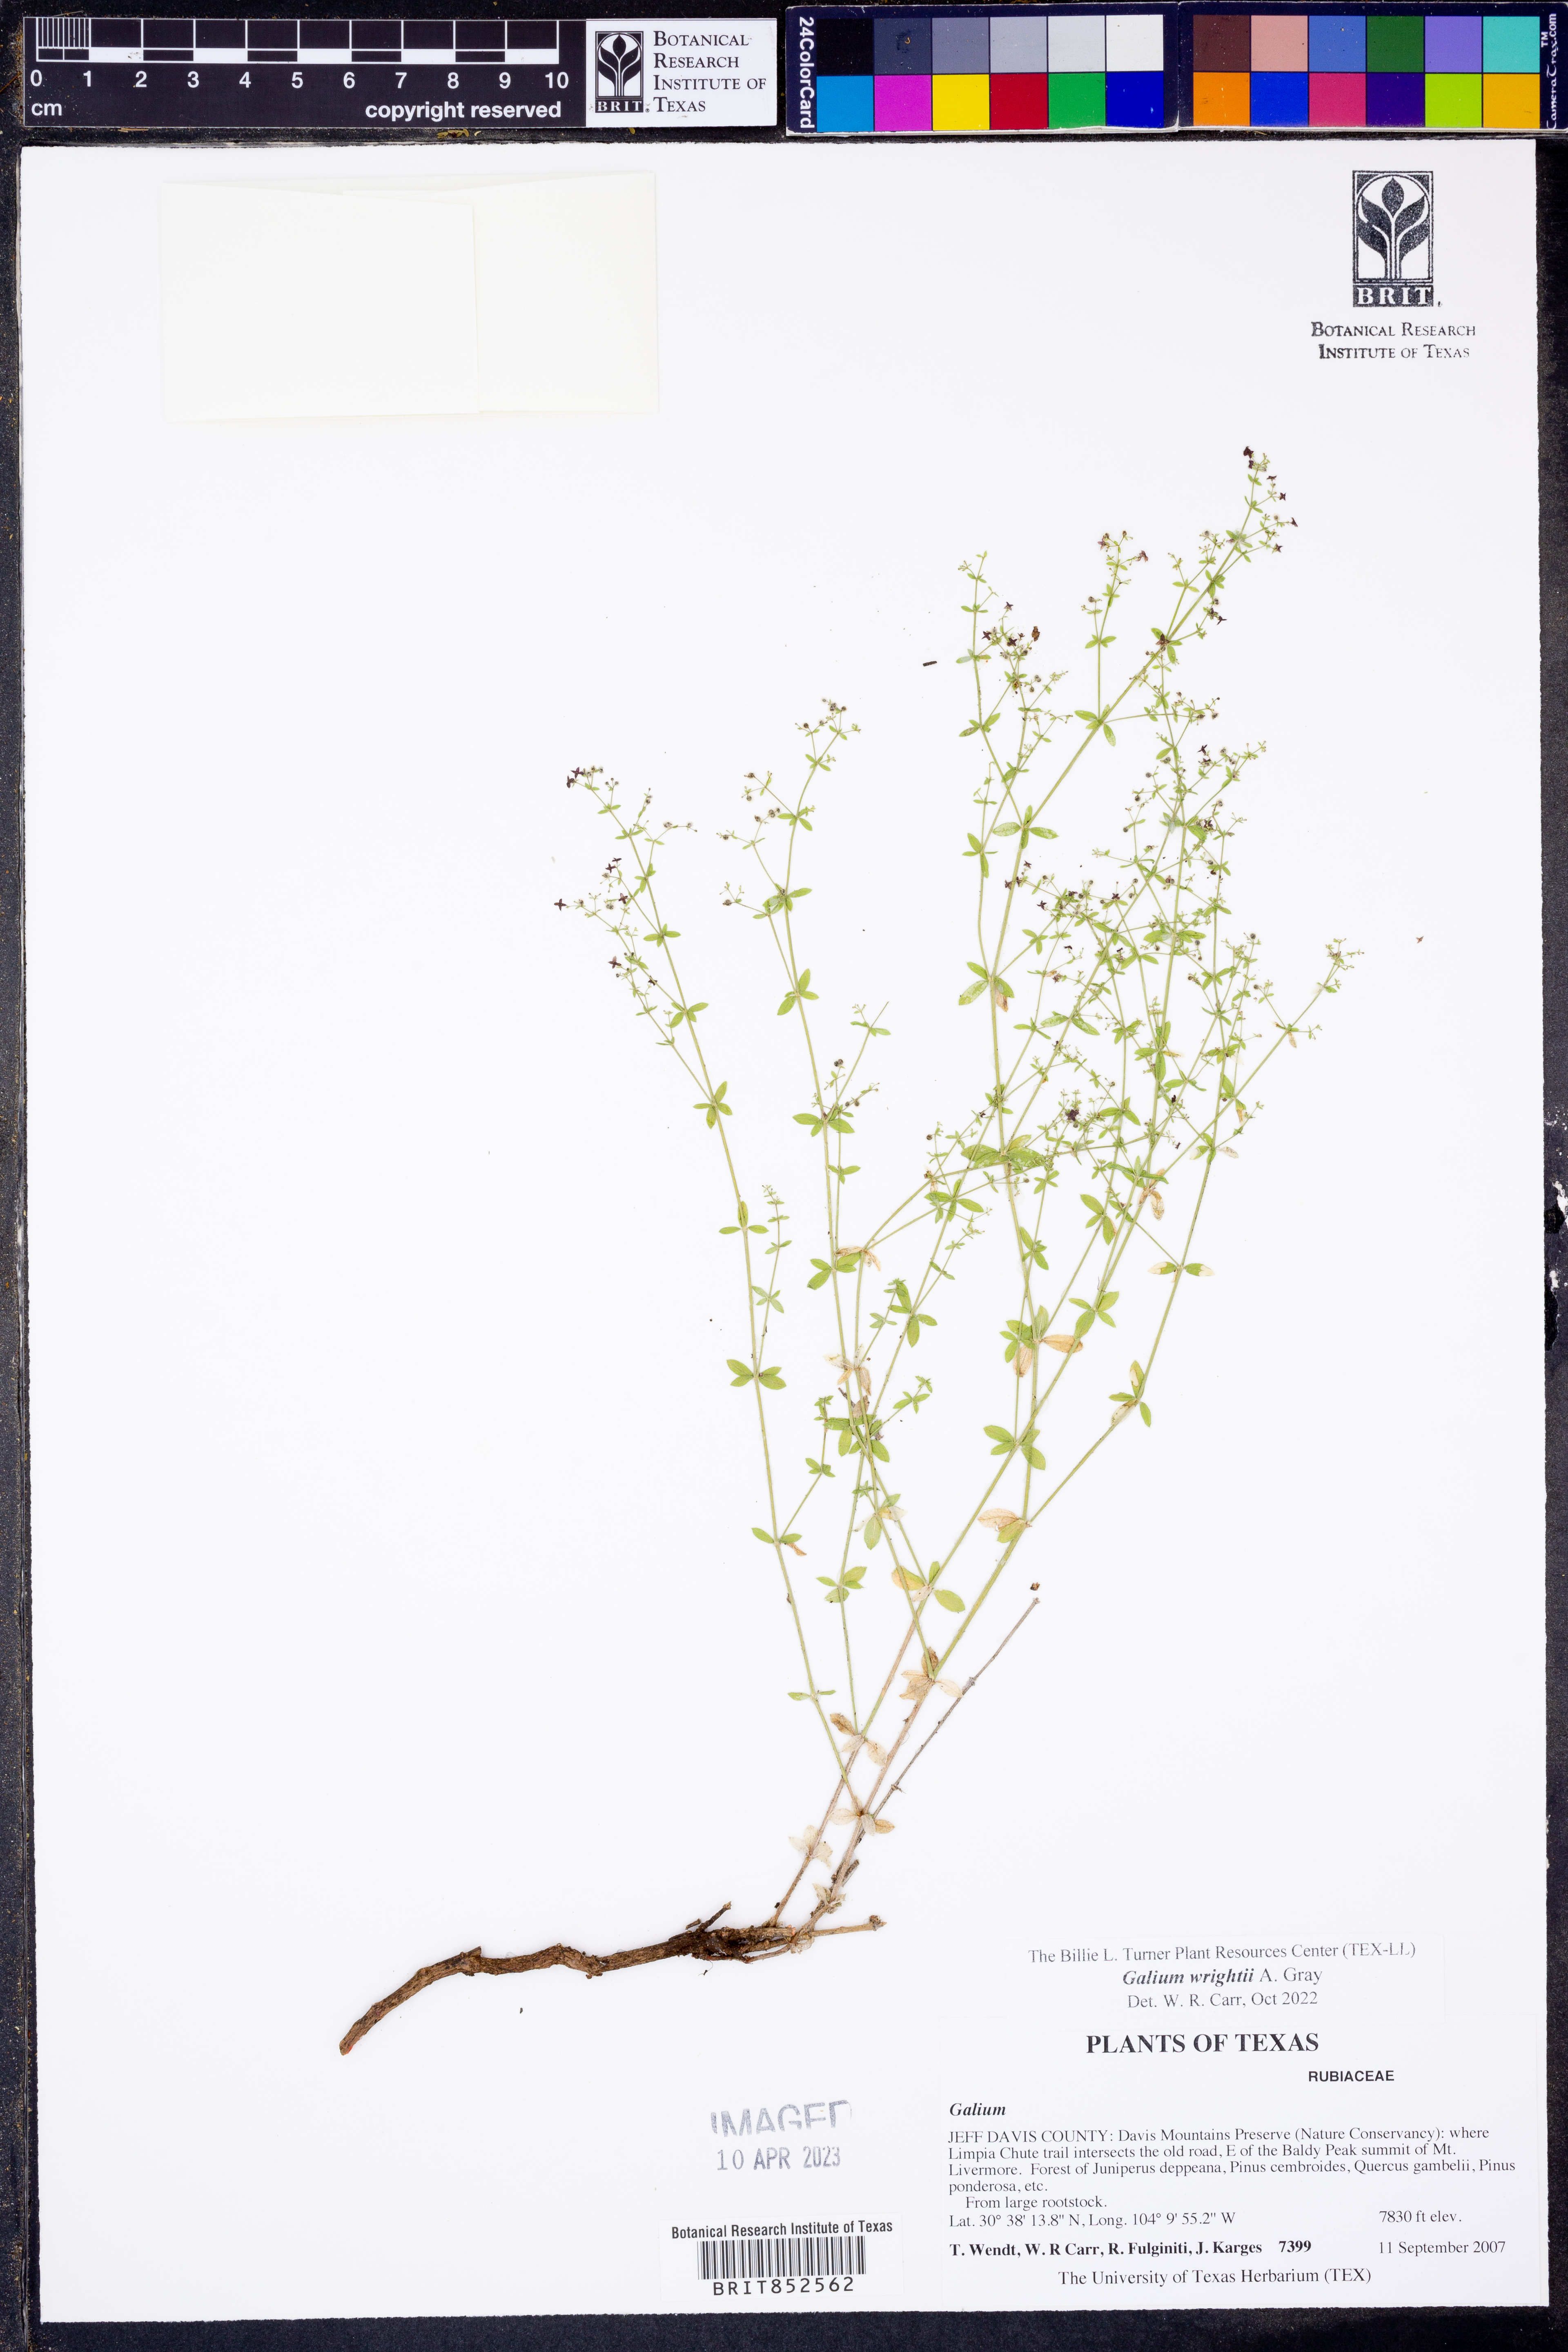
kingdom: Plantae
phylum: Tracheophyta
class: Magnoliopsida
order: Gentianales
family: Rubiaceae
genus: Galium
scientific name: Galium wrightii
